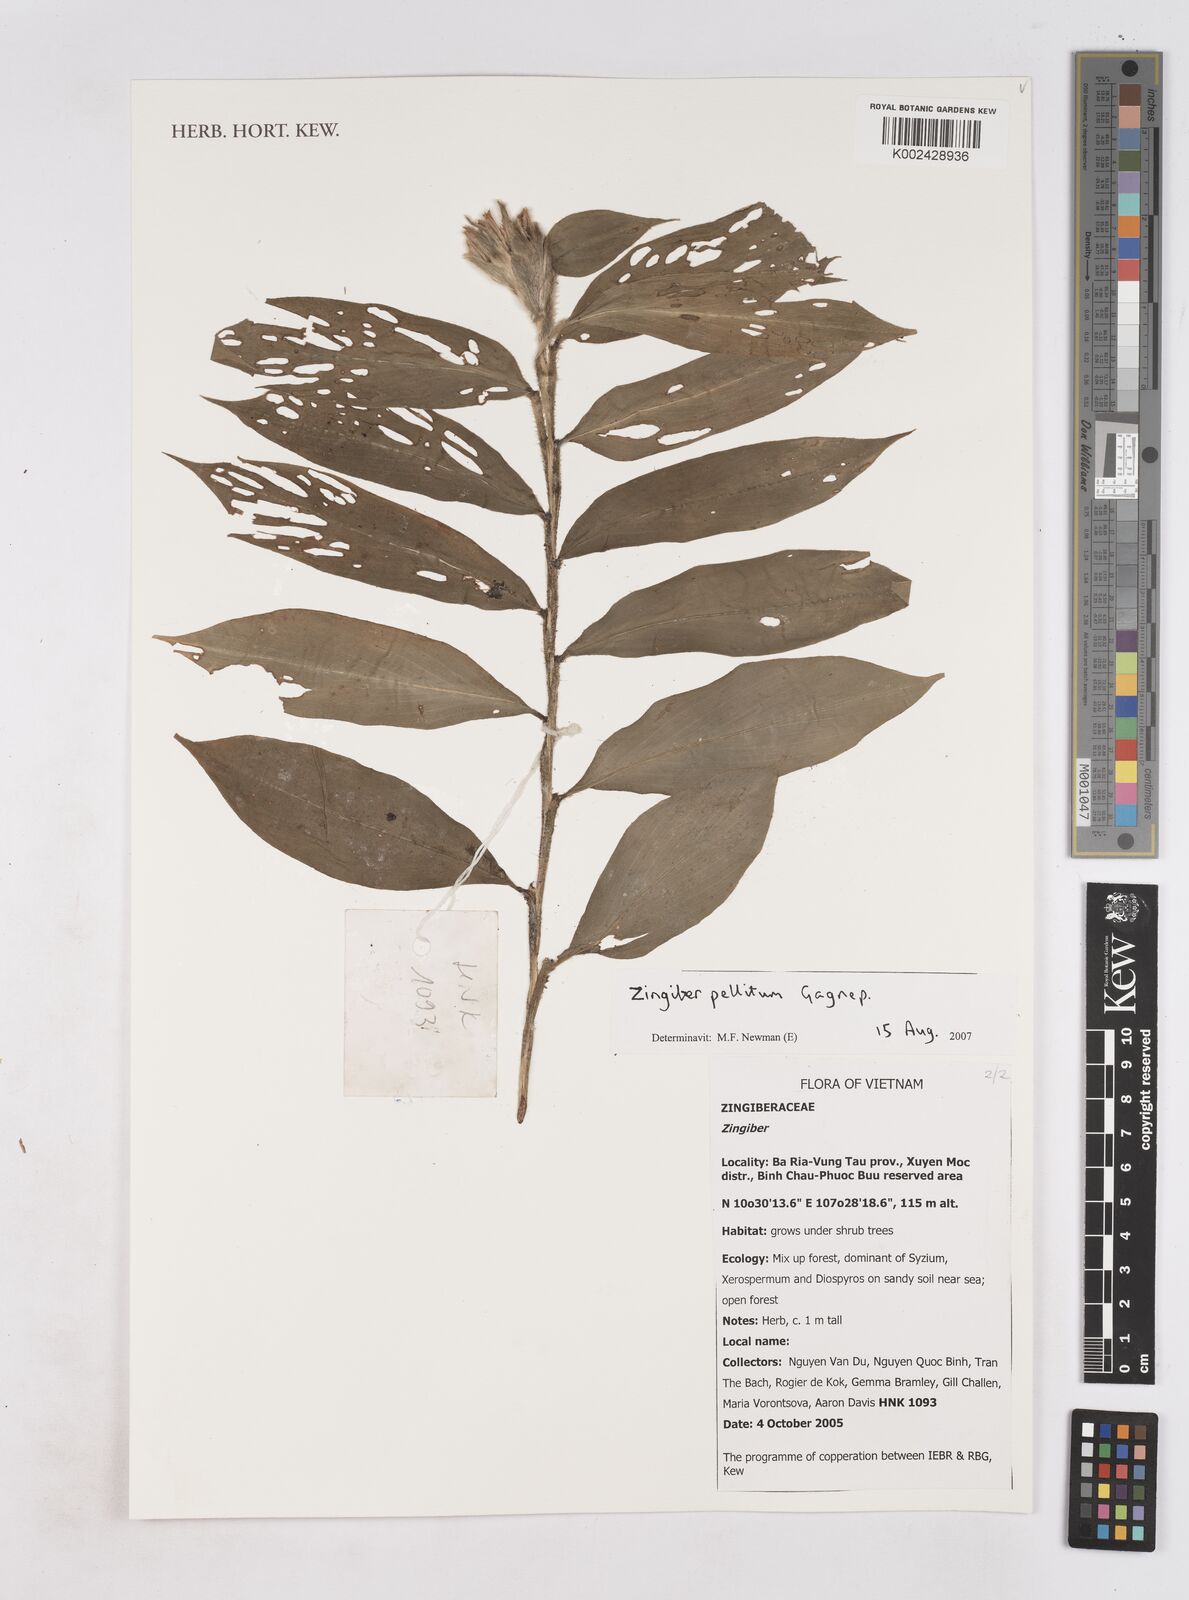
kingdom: Plantae
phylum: Tracheophyta
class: Liliopsida
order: Zingiberales
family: Zingiberaceae
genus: Zingiber
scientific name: Zingiber pellitum
